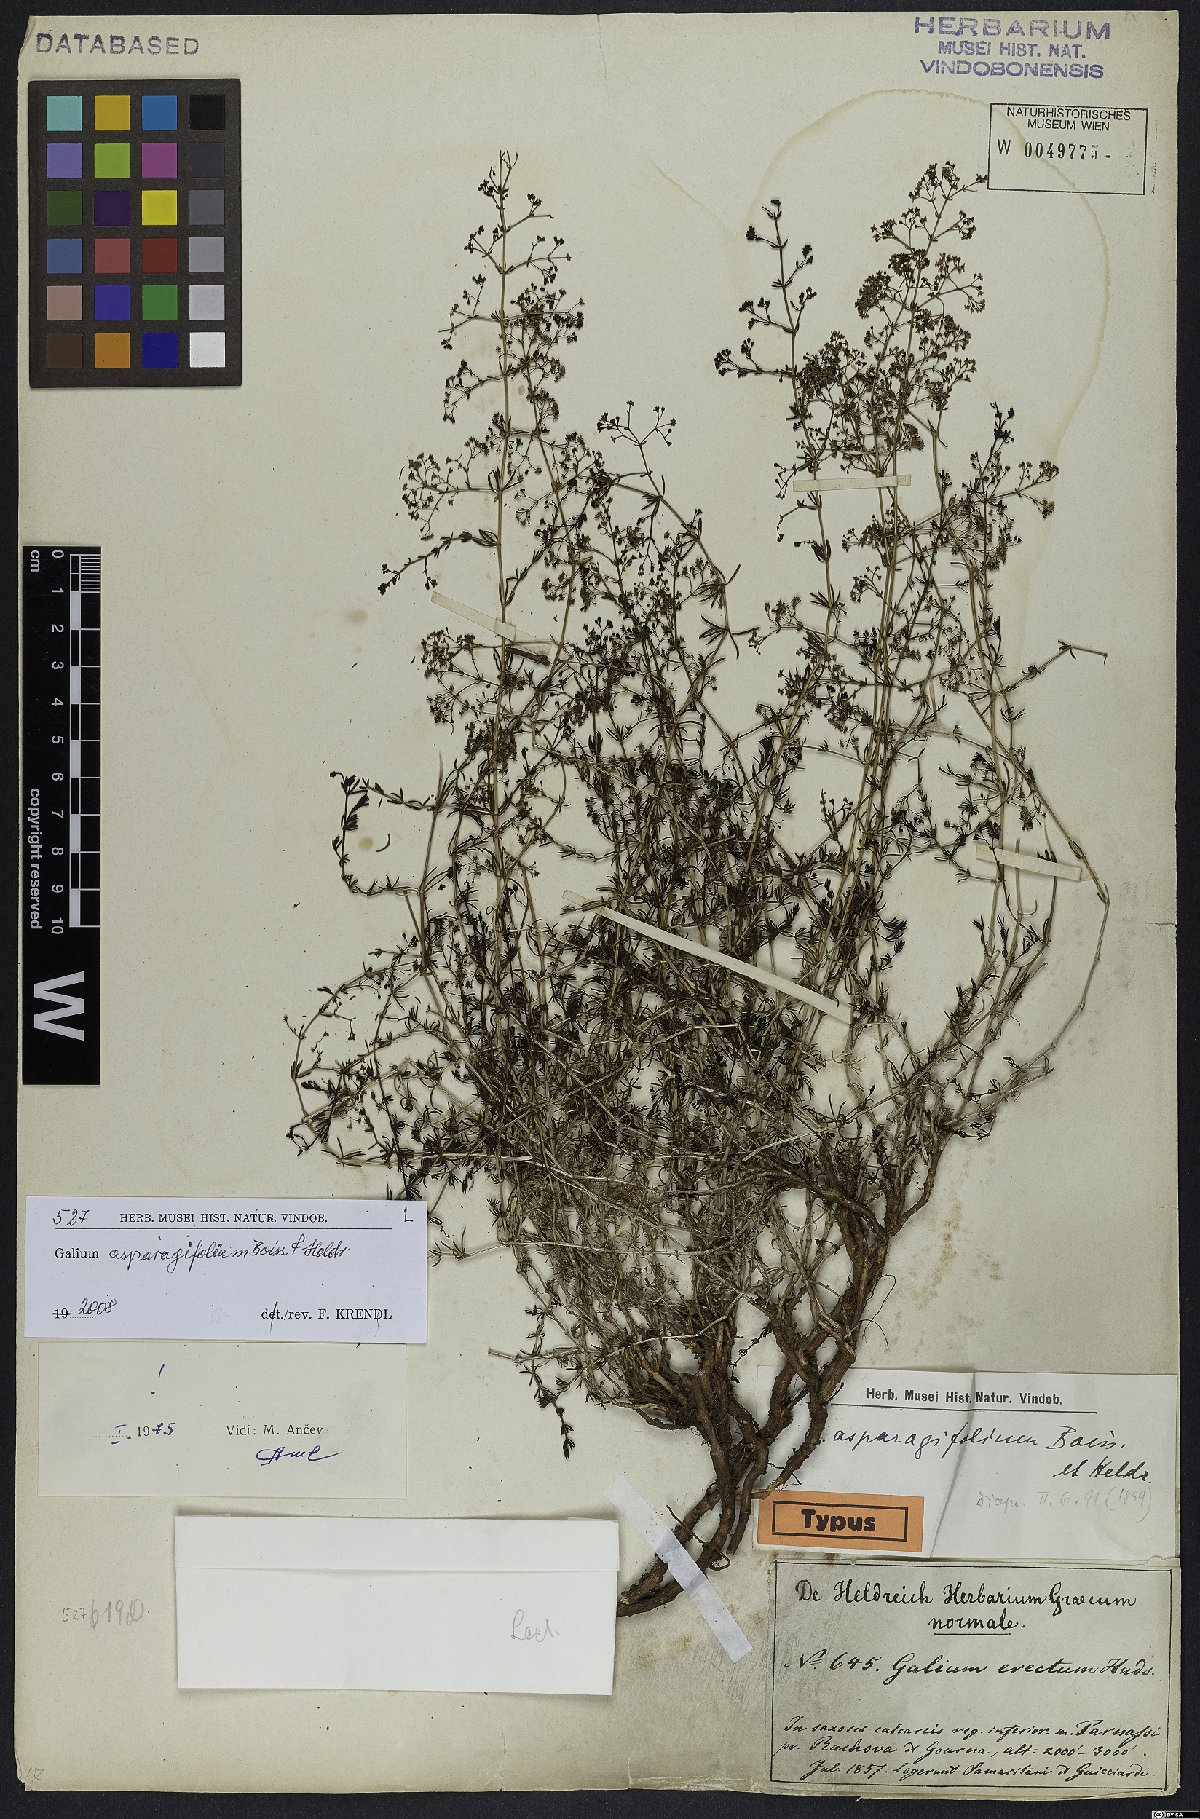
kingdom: Plantae
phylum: Tracheophyta
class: Magnoliopsida
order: Gentianales
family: Rubiaceae
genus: Galium
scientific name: Galium asparagifolium
